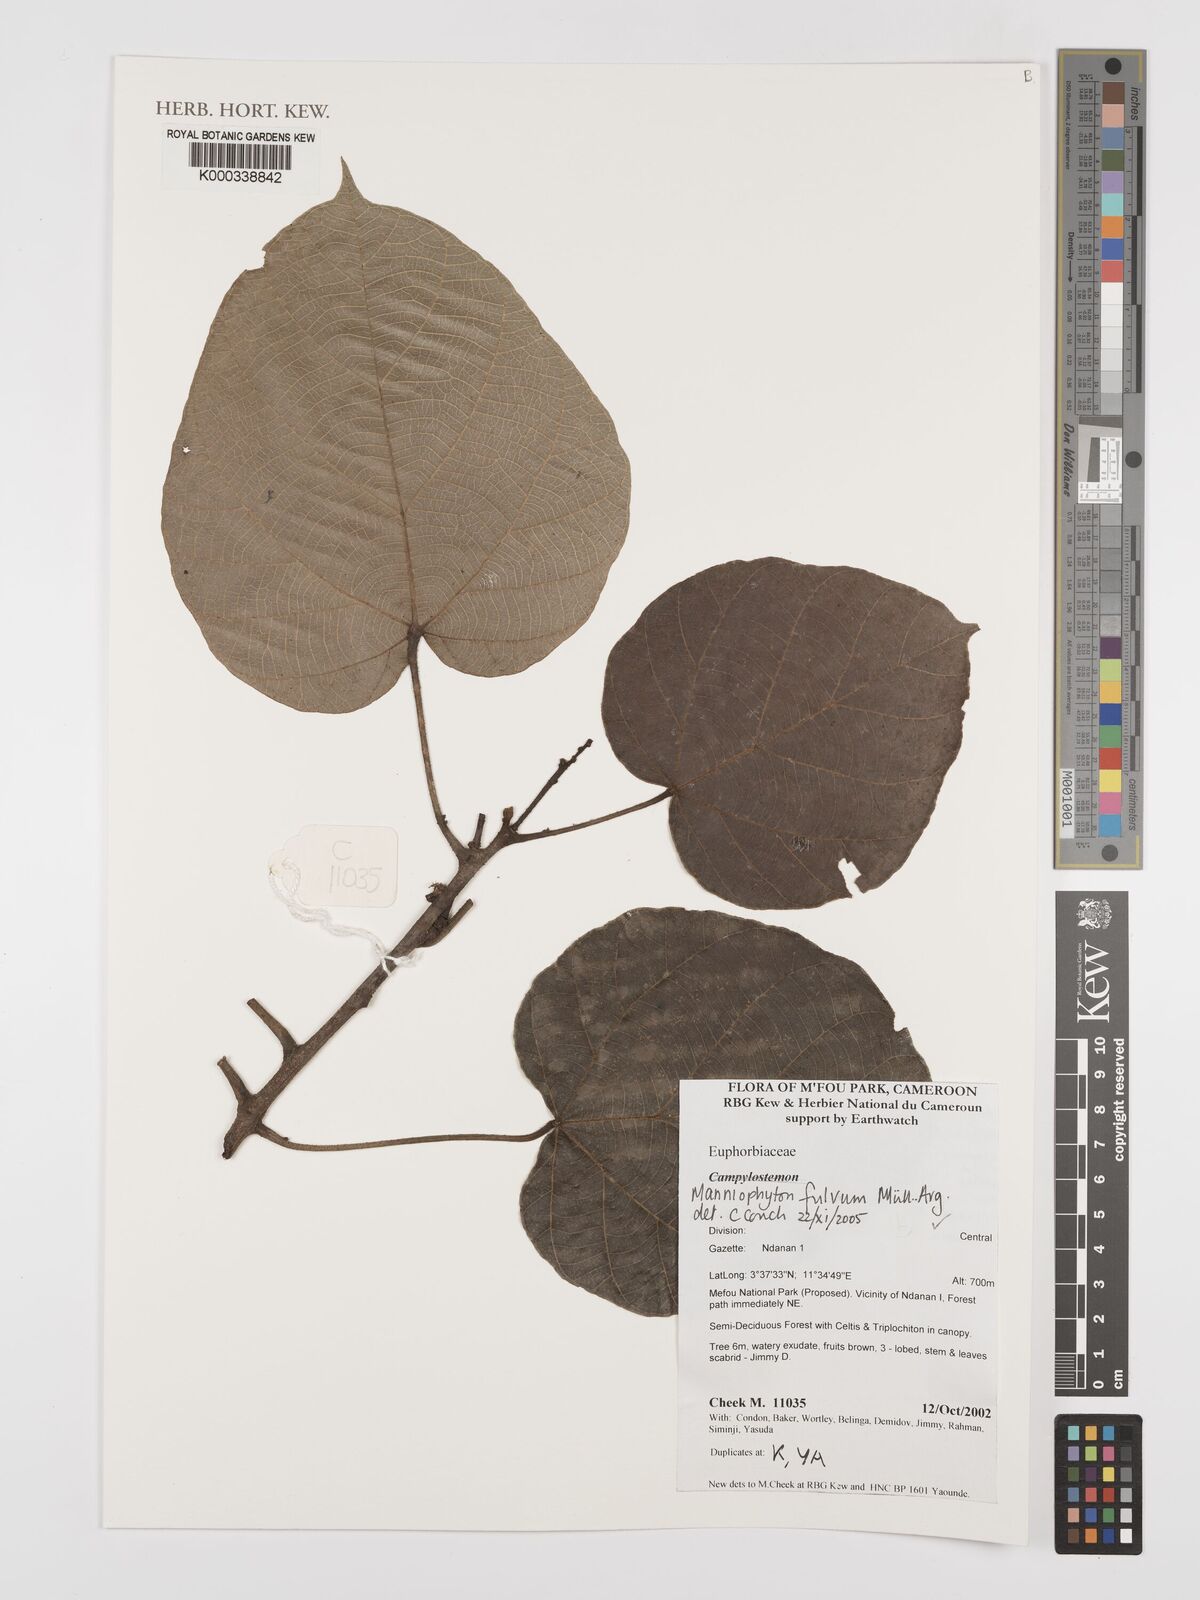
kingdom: Plantae
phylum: Tracheophyta
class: Magnoliopsida
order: Malpighiales
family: Euphorbiaceae
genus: Manniophyton
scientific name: Manniophyton
